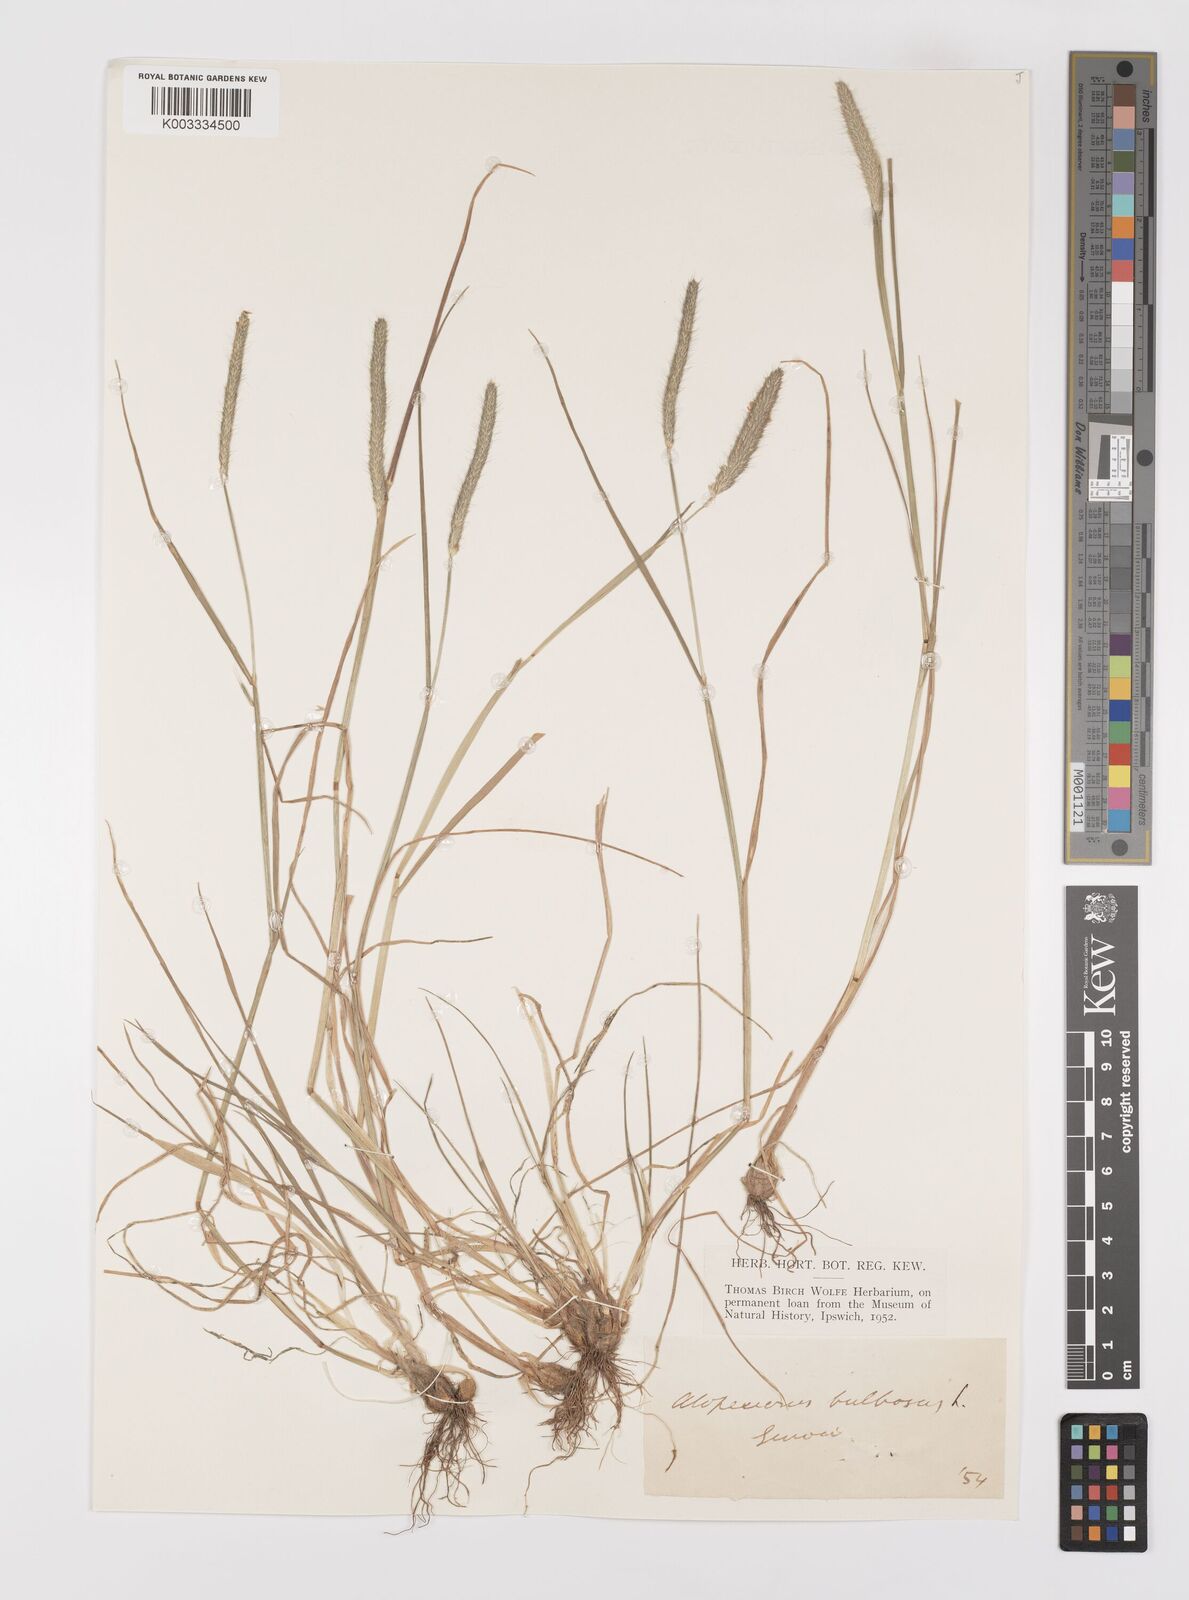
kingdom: Plantae
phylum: Tracheophyta
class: Liliopsida
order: Poales
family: Poaceae
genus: Alopecurus
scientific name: Alopecurus bulbosus
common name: Bulbous foxtail
